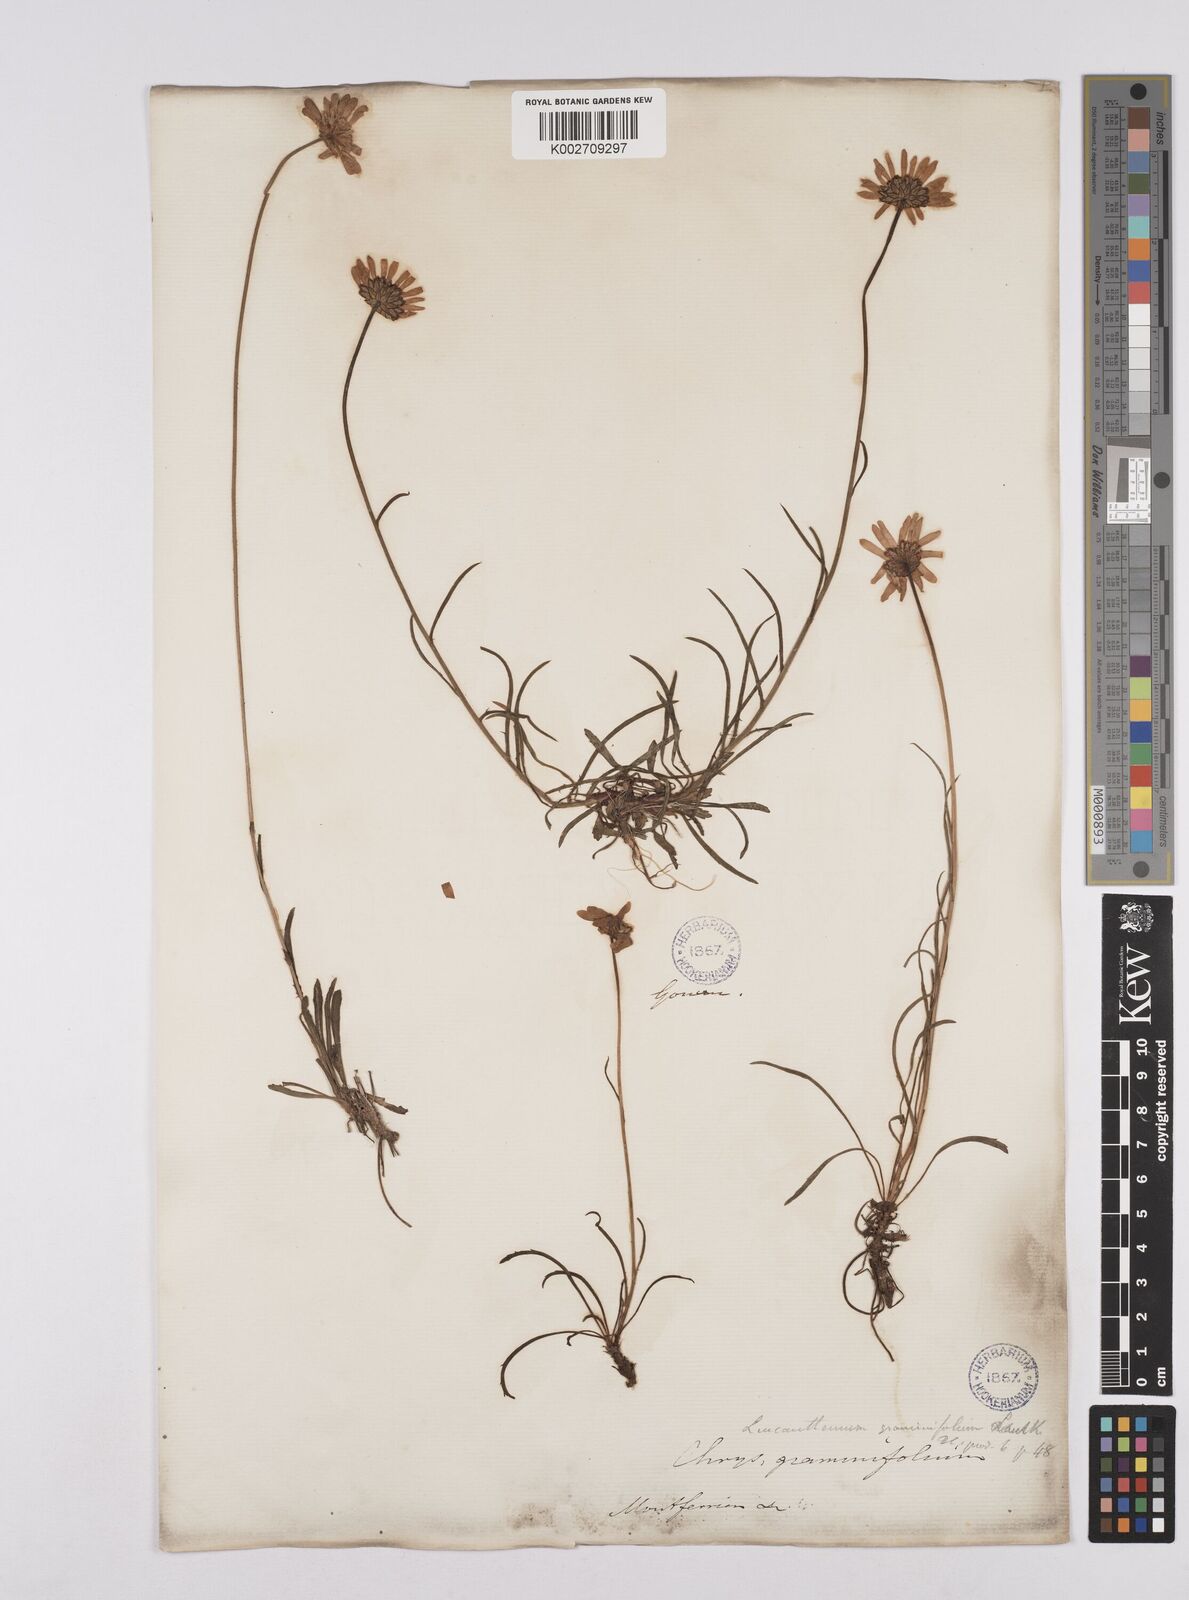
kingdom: Plantae
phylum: Tracheophyta
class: Magnoliopsida
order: Asterales
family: Asteraceae
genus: Leucanthemum
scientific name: Leucanthemum chloroticum
